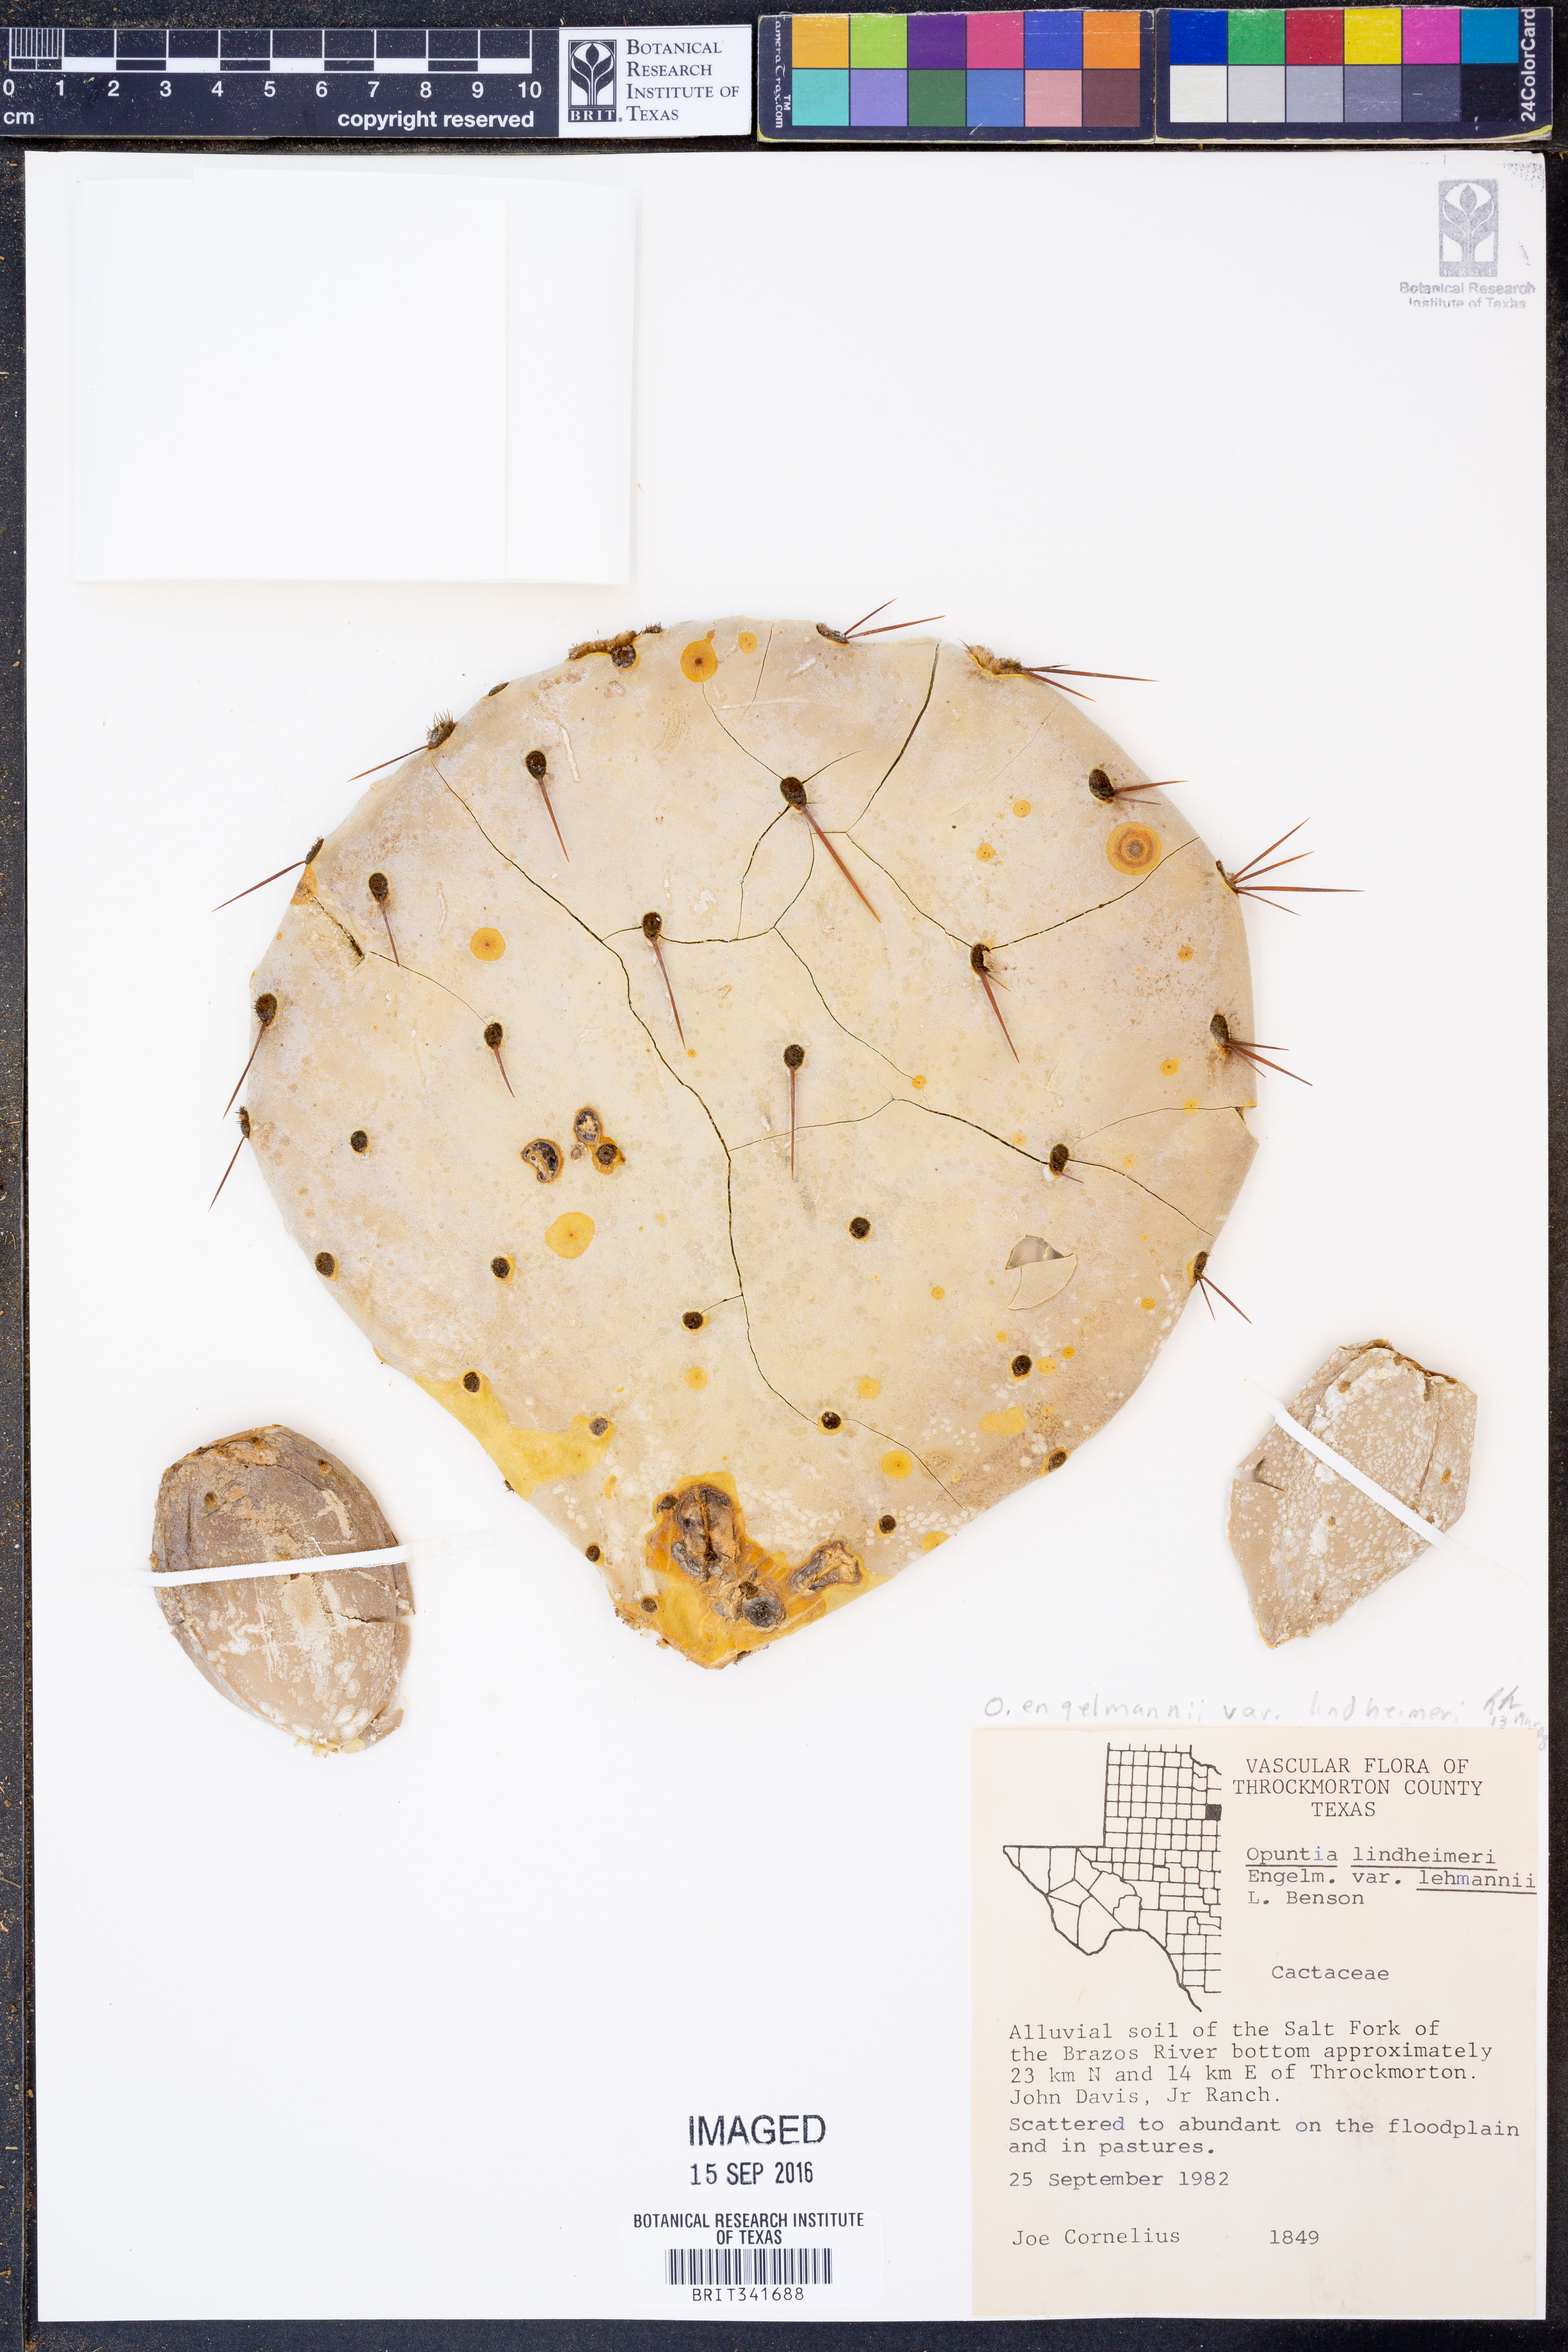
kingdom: Plantae
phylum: Tracheophyta
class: Magnoliopsida
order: Caryophyllales
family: Cactaceae
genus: Opuntia
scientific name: Opuntia engelmannii
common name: Cactus-apple
